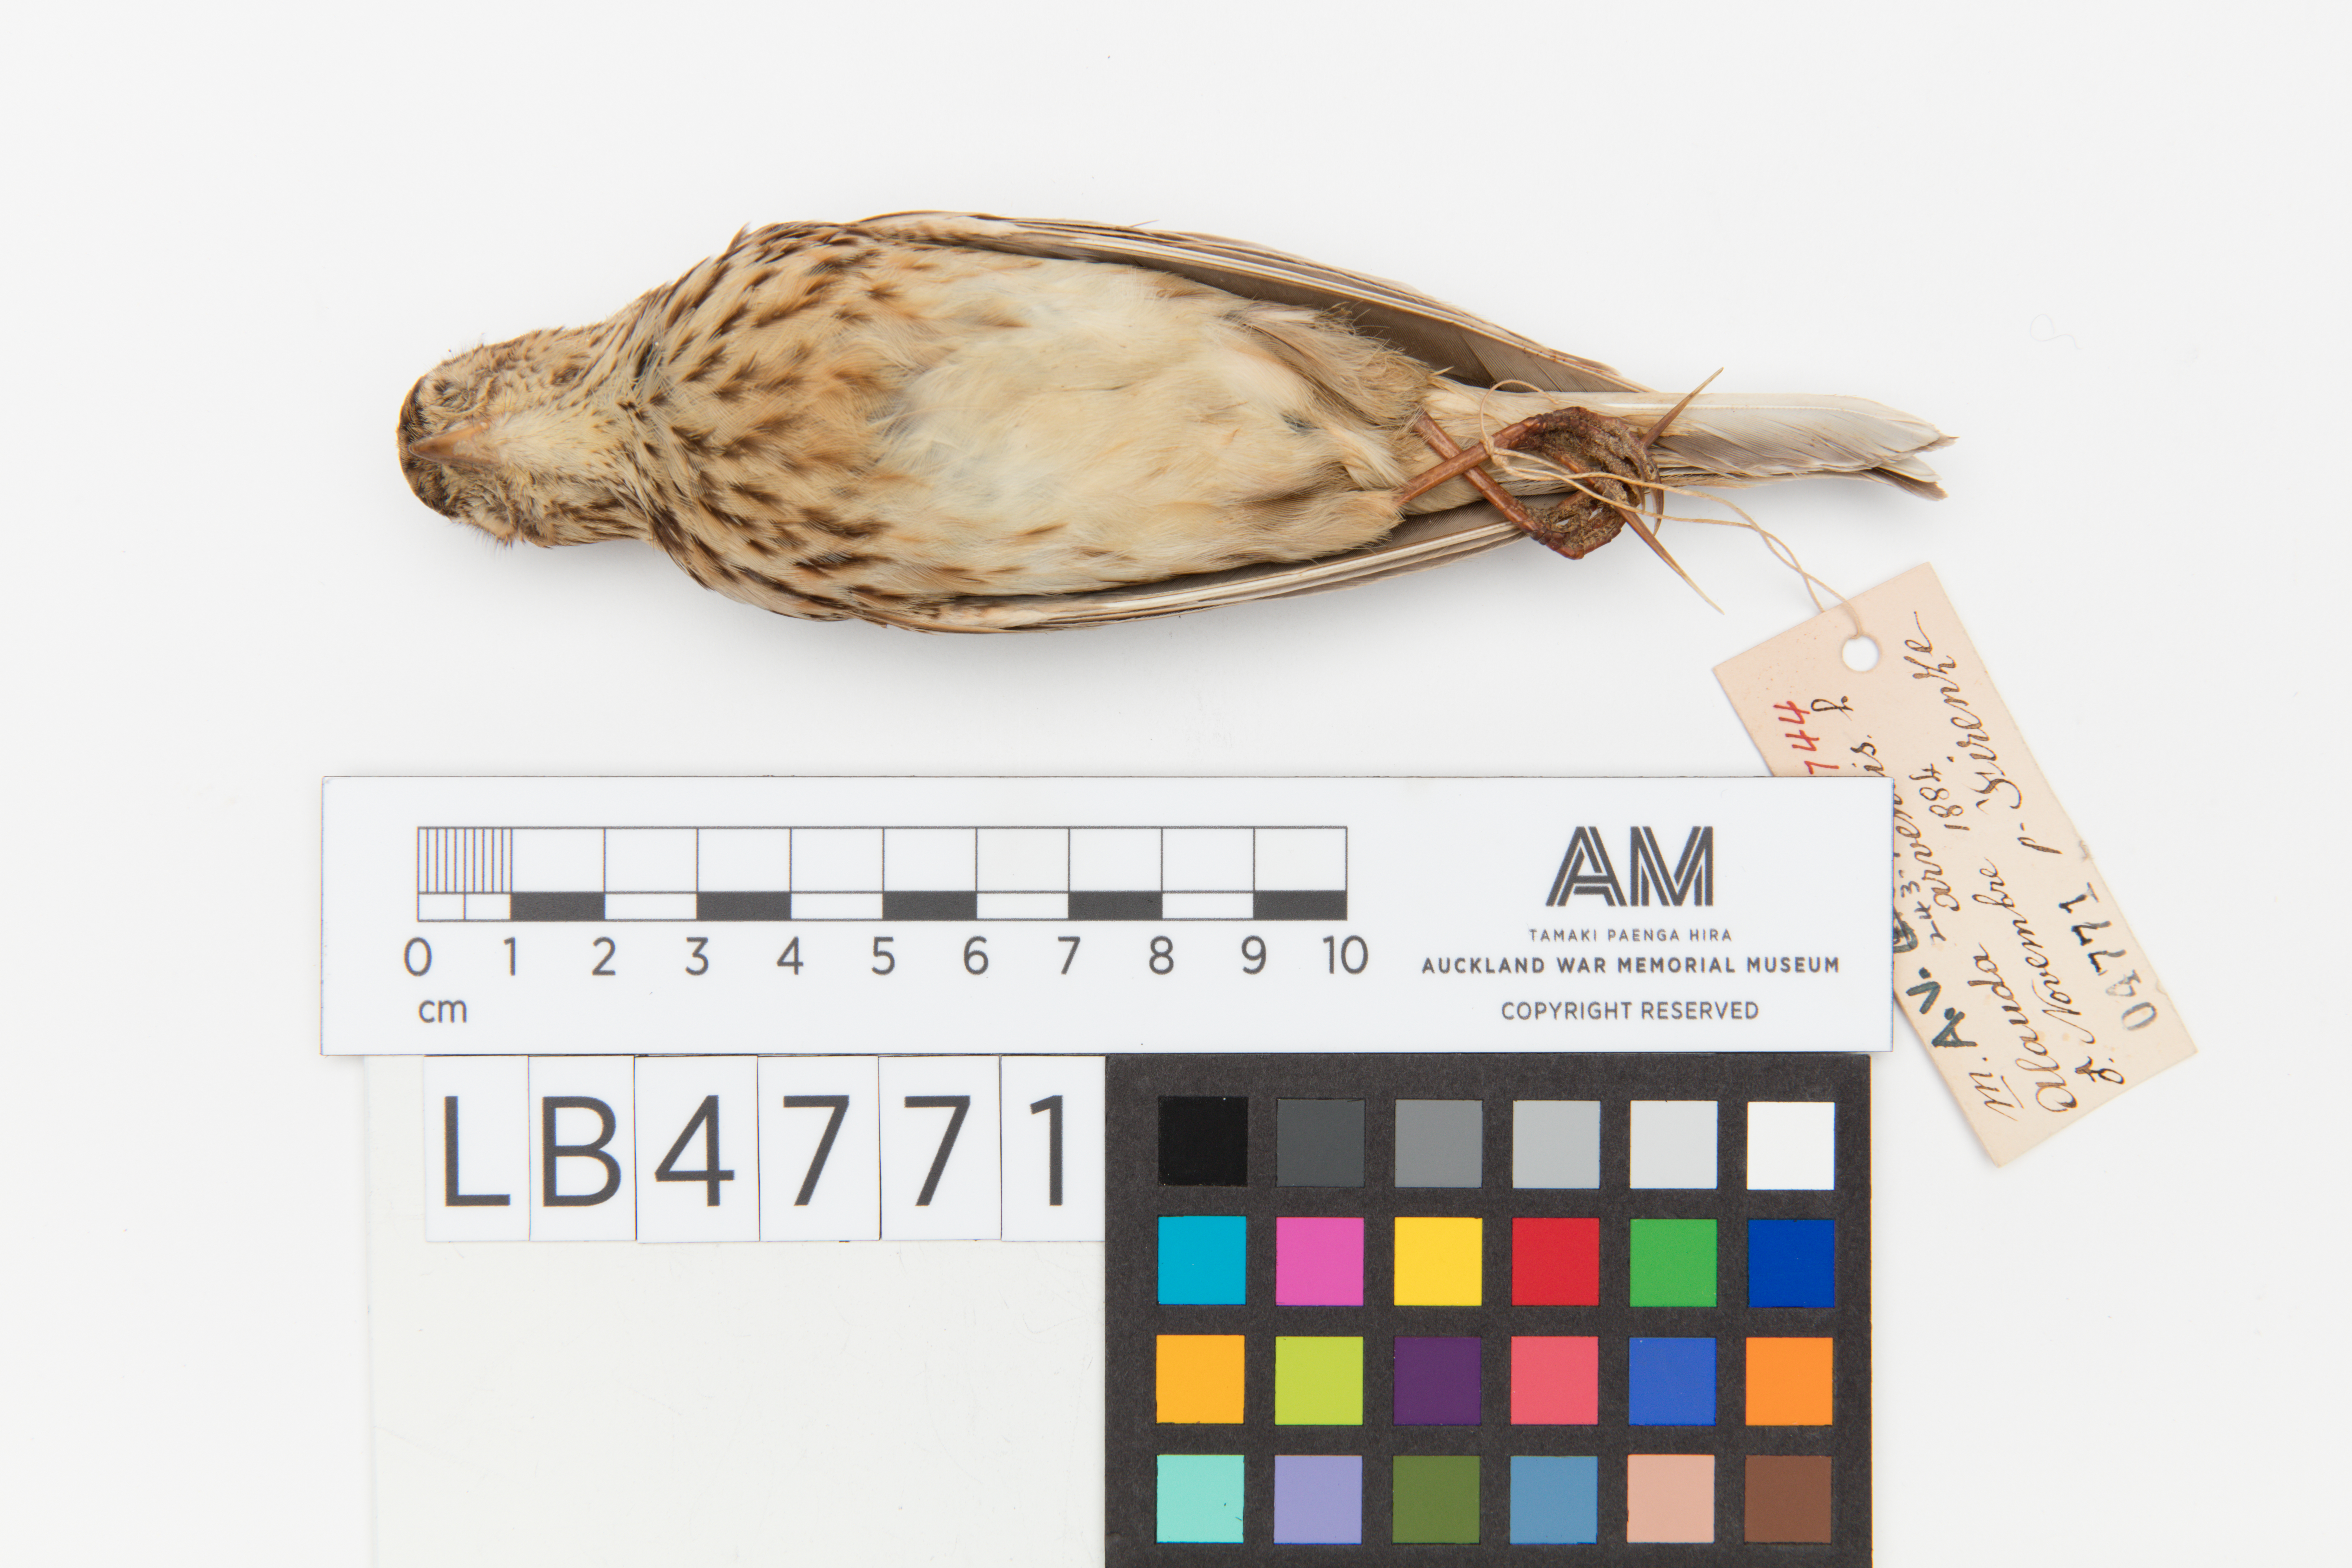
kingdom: Animalia
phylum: Chordata
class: Aves
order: Passeriformes
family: Alaudidae
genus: Alauda
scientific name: Alauda arvensis
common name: Eurasian skylark
